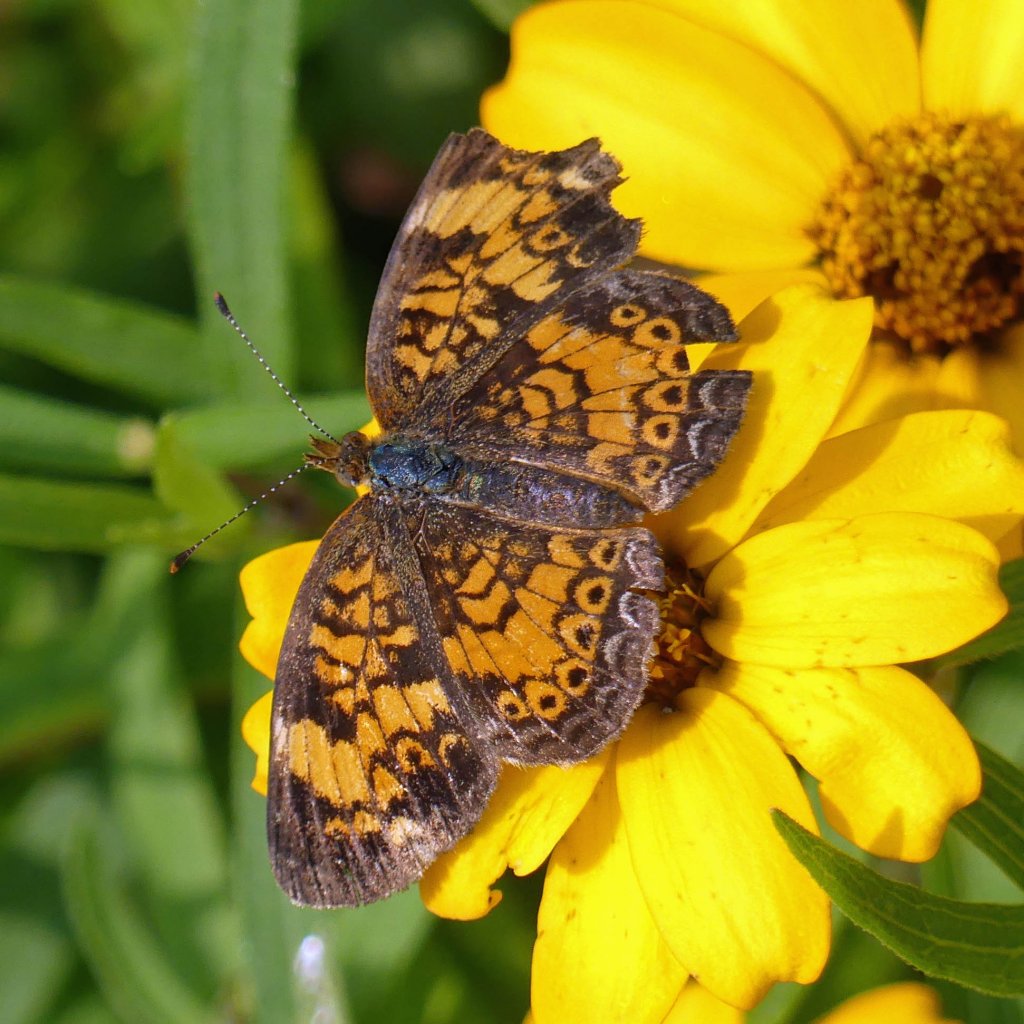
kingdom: Animalia
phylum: Arthropoda
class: Insecta
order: Lepidoptera
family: Nymphalidae
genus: Phyciodes
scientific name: Phyciodes tharos
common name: Pearl Crescent
